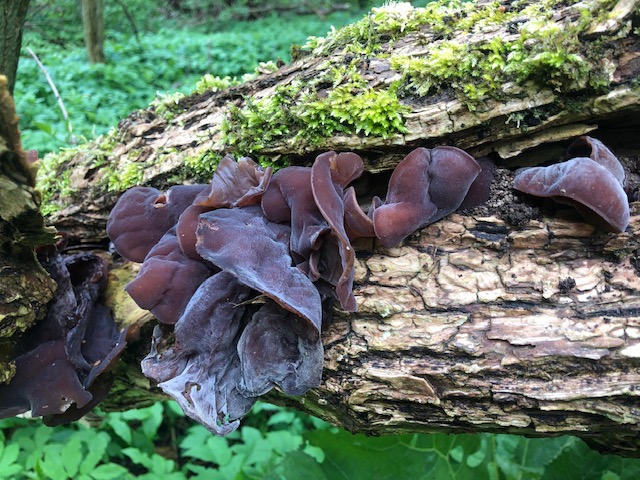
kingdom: Fungi
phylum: Basidiomycota
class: Agaricomycetes
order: Auriculariales
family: Auriculariaceae
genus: Auricularia
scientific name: Auricularia auricula-judae
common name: almindelig judasøre
